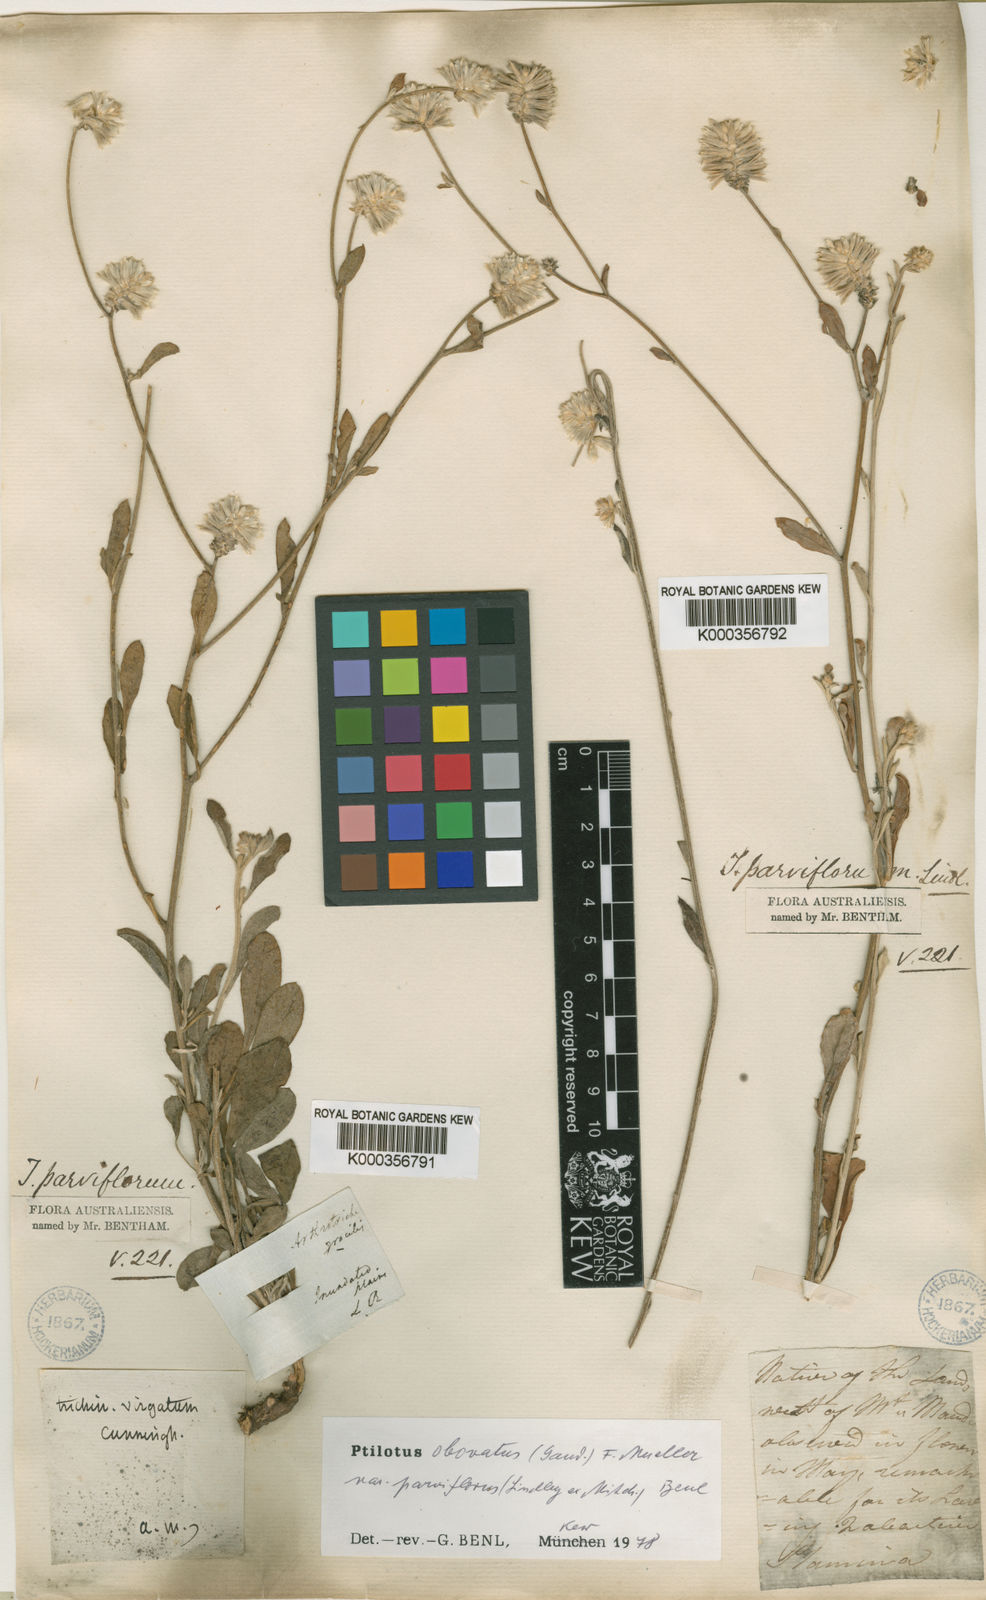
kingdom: Plantae
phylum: Tracheophyta
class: Magnoliopsida
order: Caryophyllales
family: Amaranthaceae
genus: Ptilotus
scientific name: Ptilotus parviflorus
